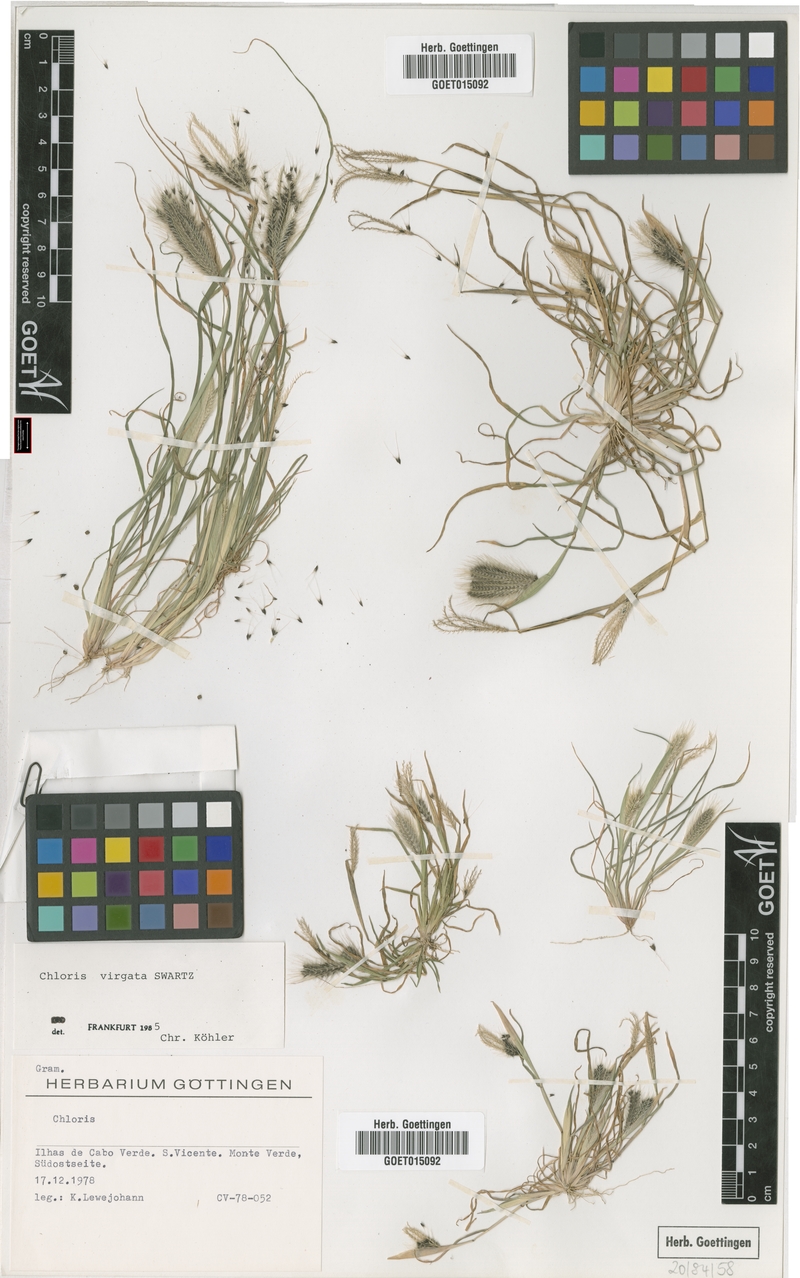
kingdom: Plantae
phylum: Tracheophyta
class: Liliopsida
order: Poales
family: Poaceae
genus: Chloris
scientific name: Chloris virgata
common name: Feathery rhodes-grass
